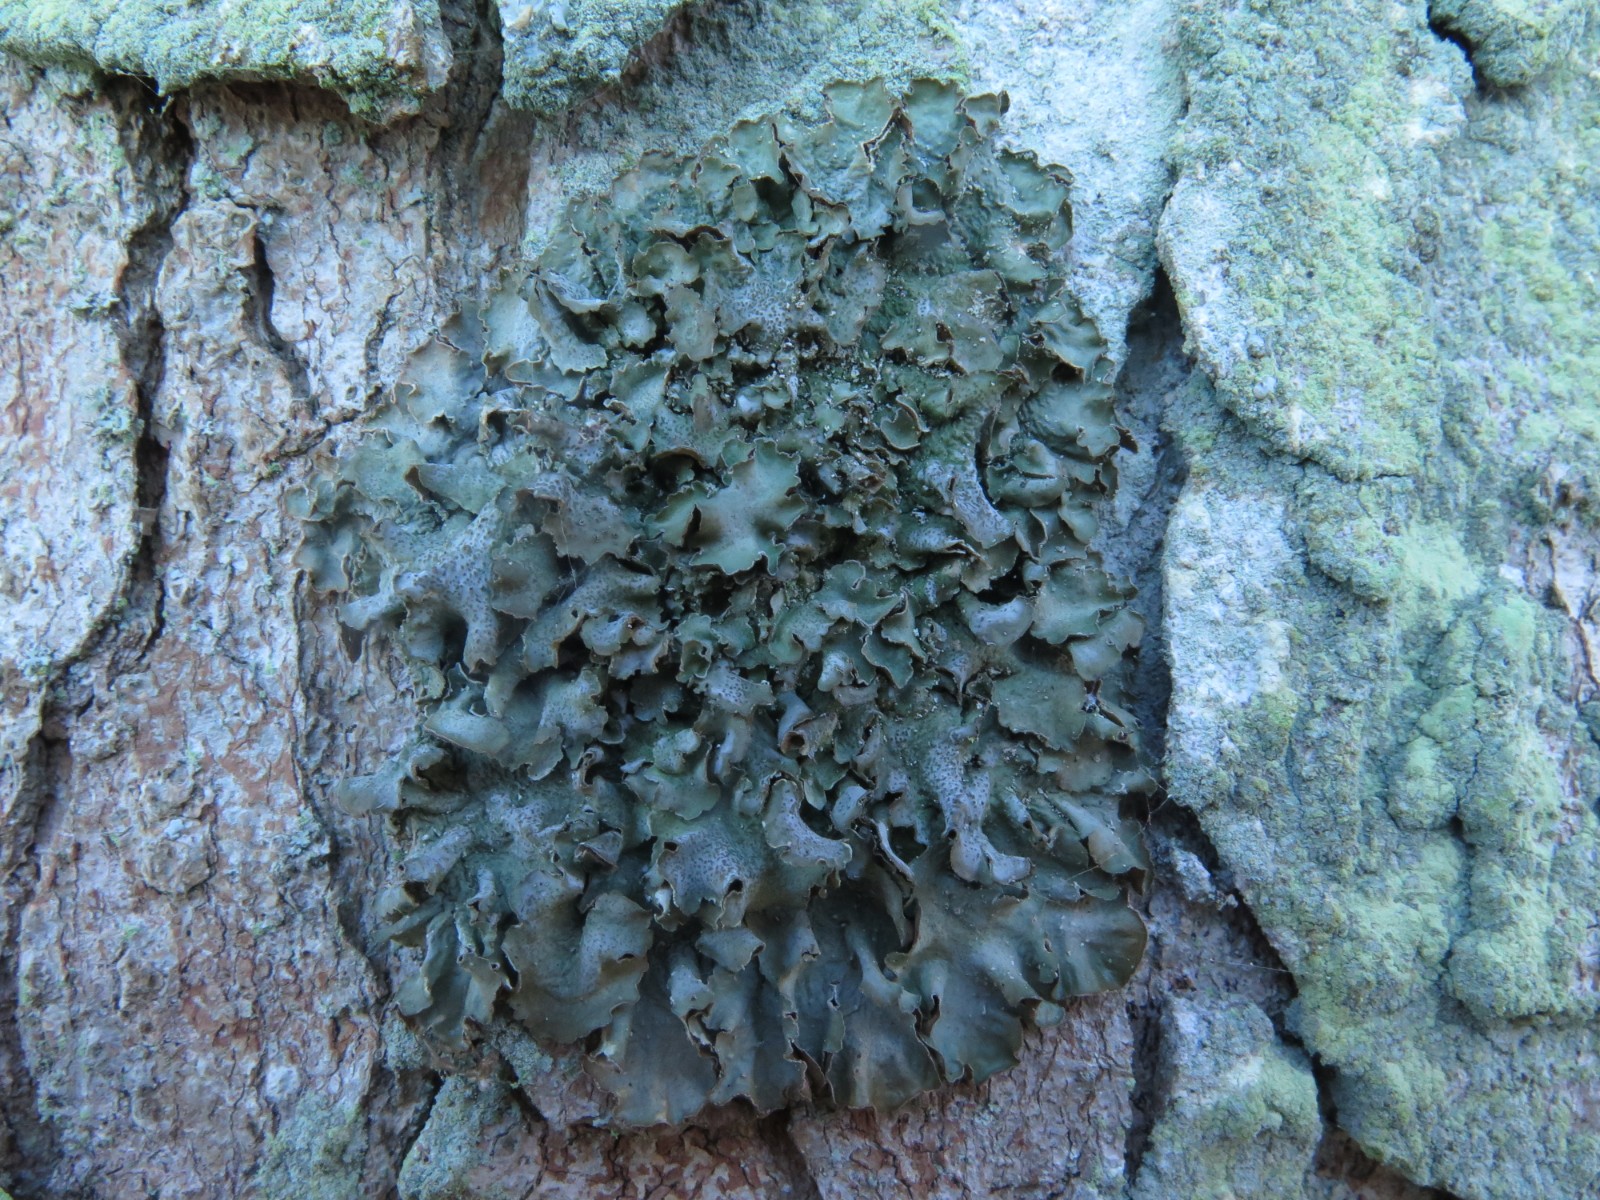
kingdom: Fungi
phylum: Ascomycota
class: Lecanoromycetes
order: Lecanorales
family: Parmeliaceae
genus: Pleurosticta
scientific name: Pleurosticta acetabulum
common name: stor skållav
